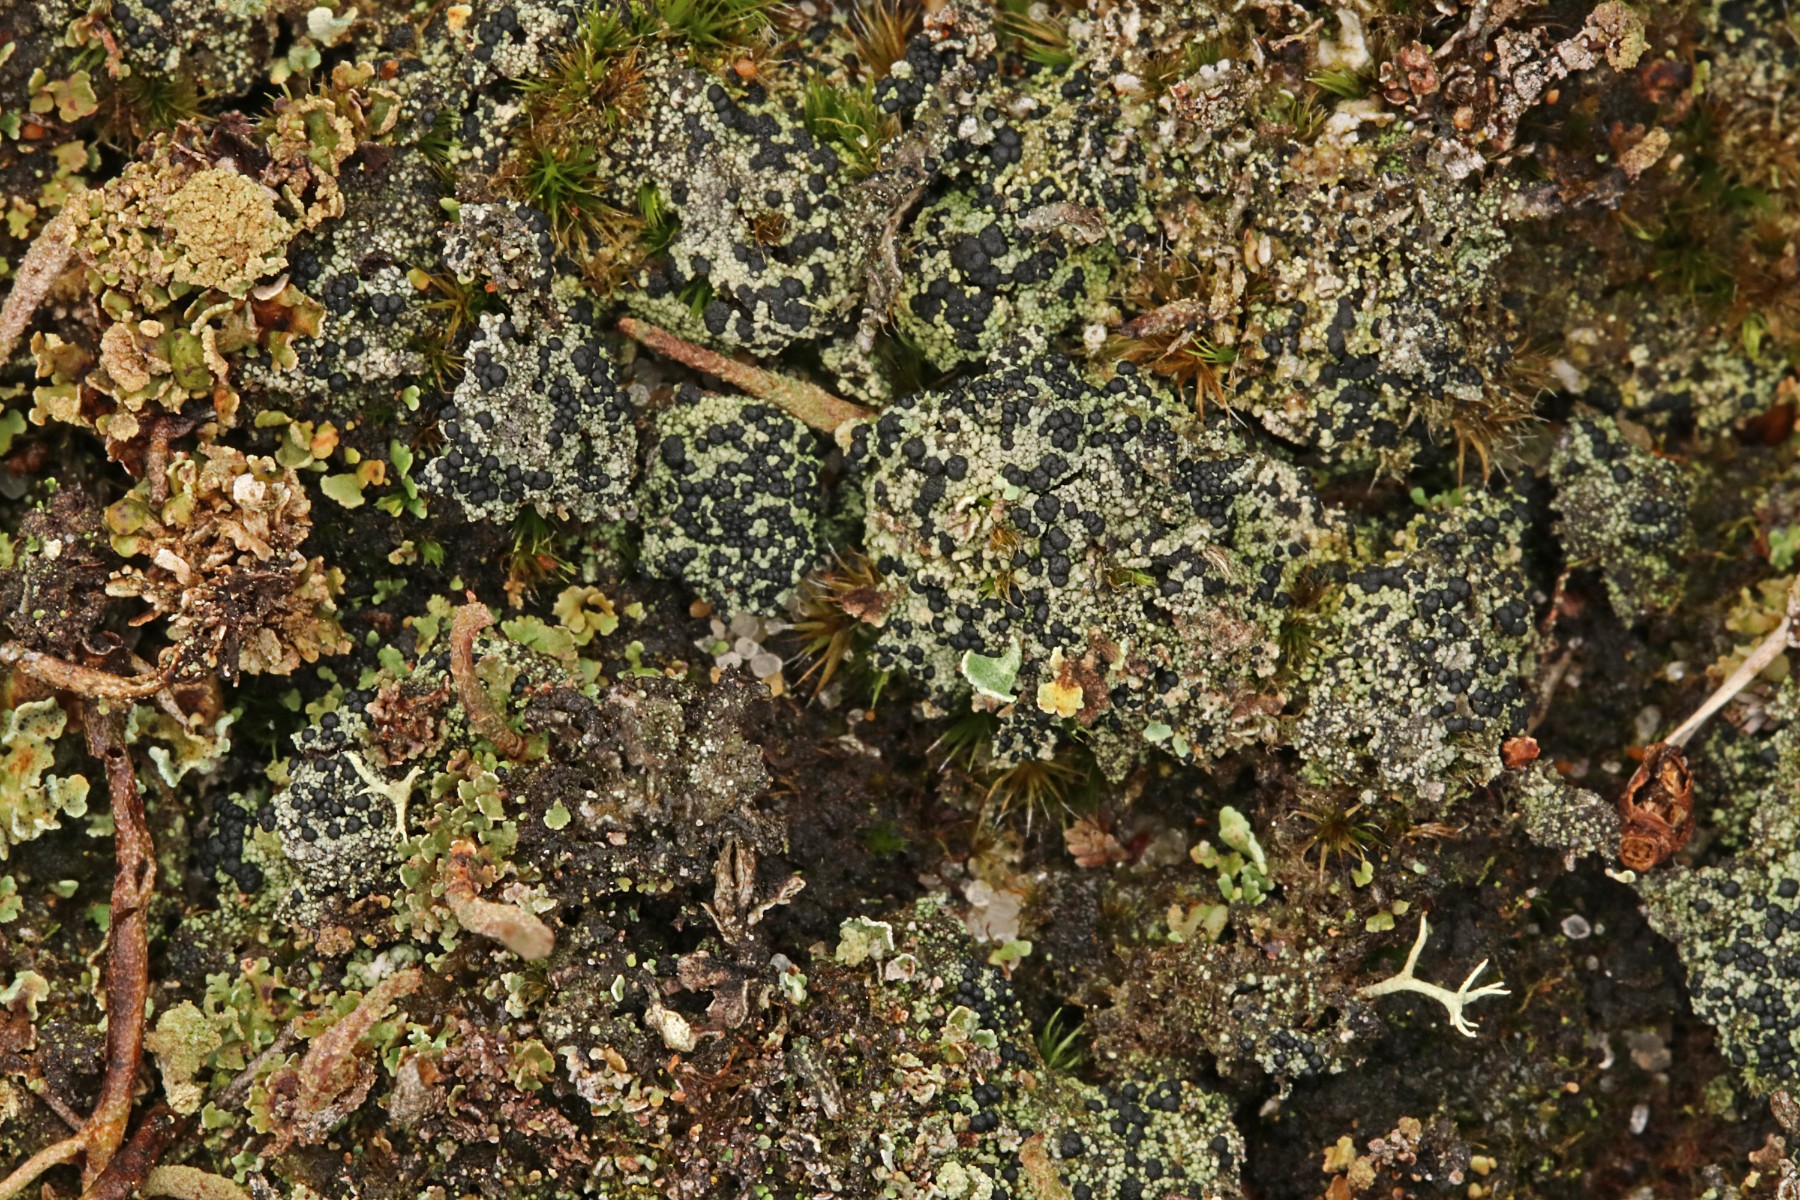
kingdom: Fungi
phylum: Ascomycota
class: Lecanoromycetes
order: Lecanorales
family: Byssolomataceae
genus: Micarea
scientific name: Micarea lignaria
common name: tørve-knaplav
